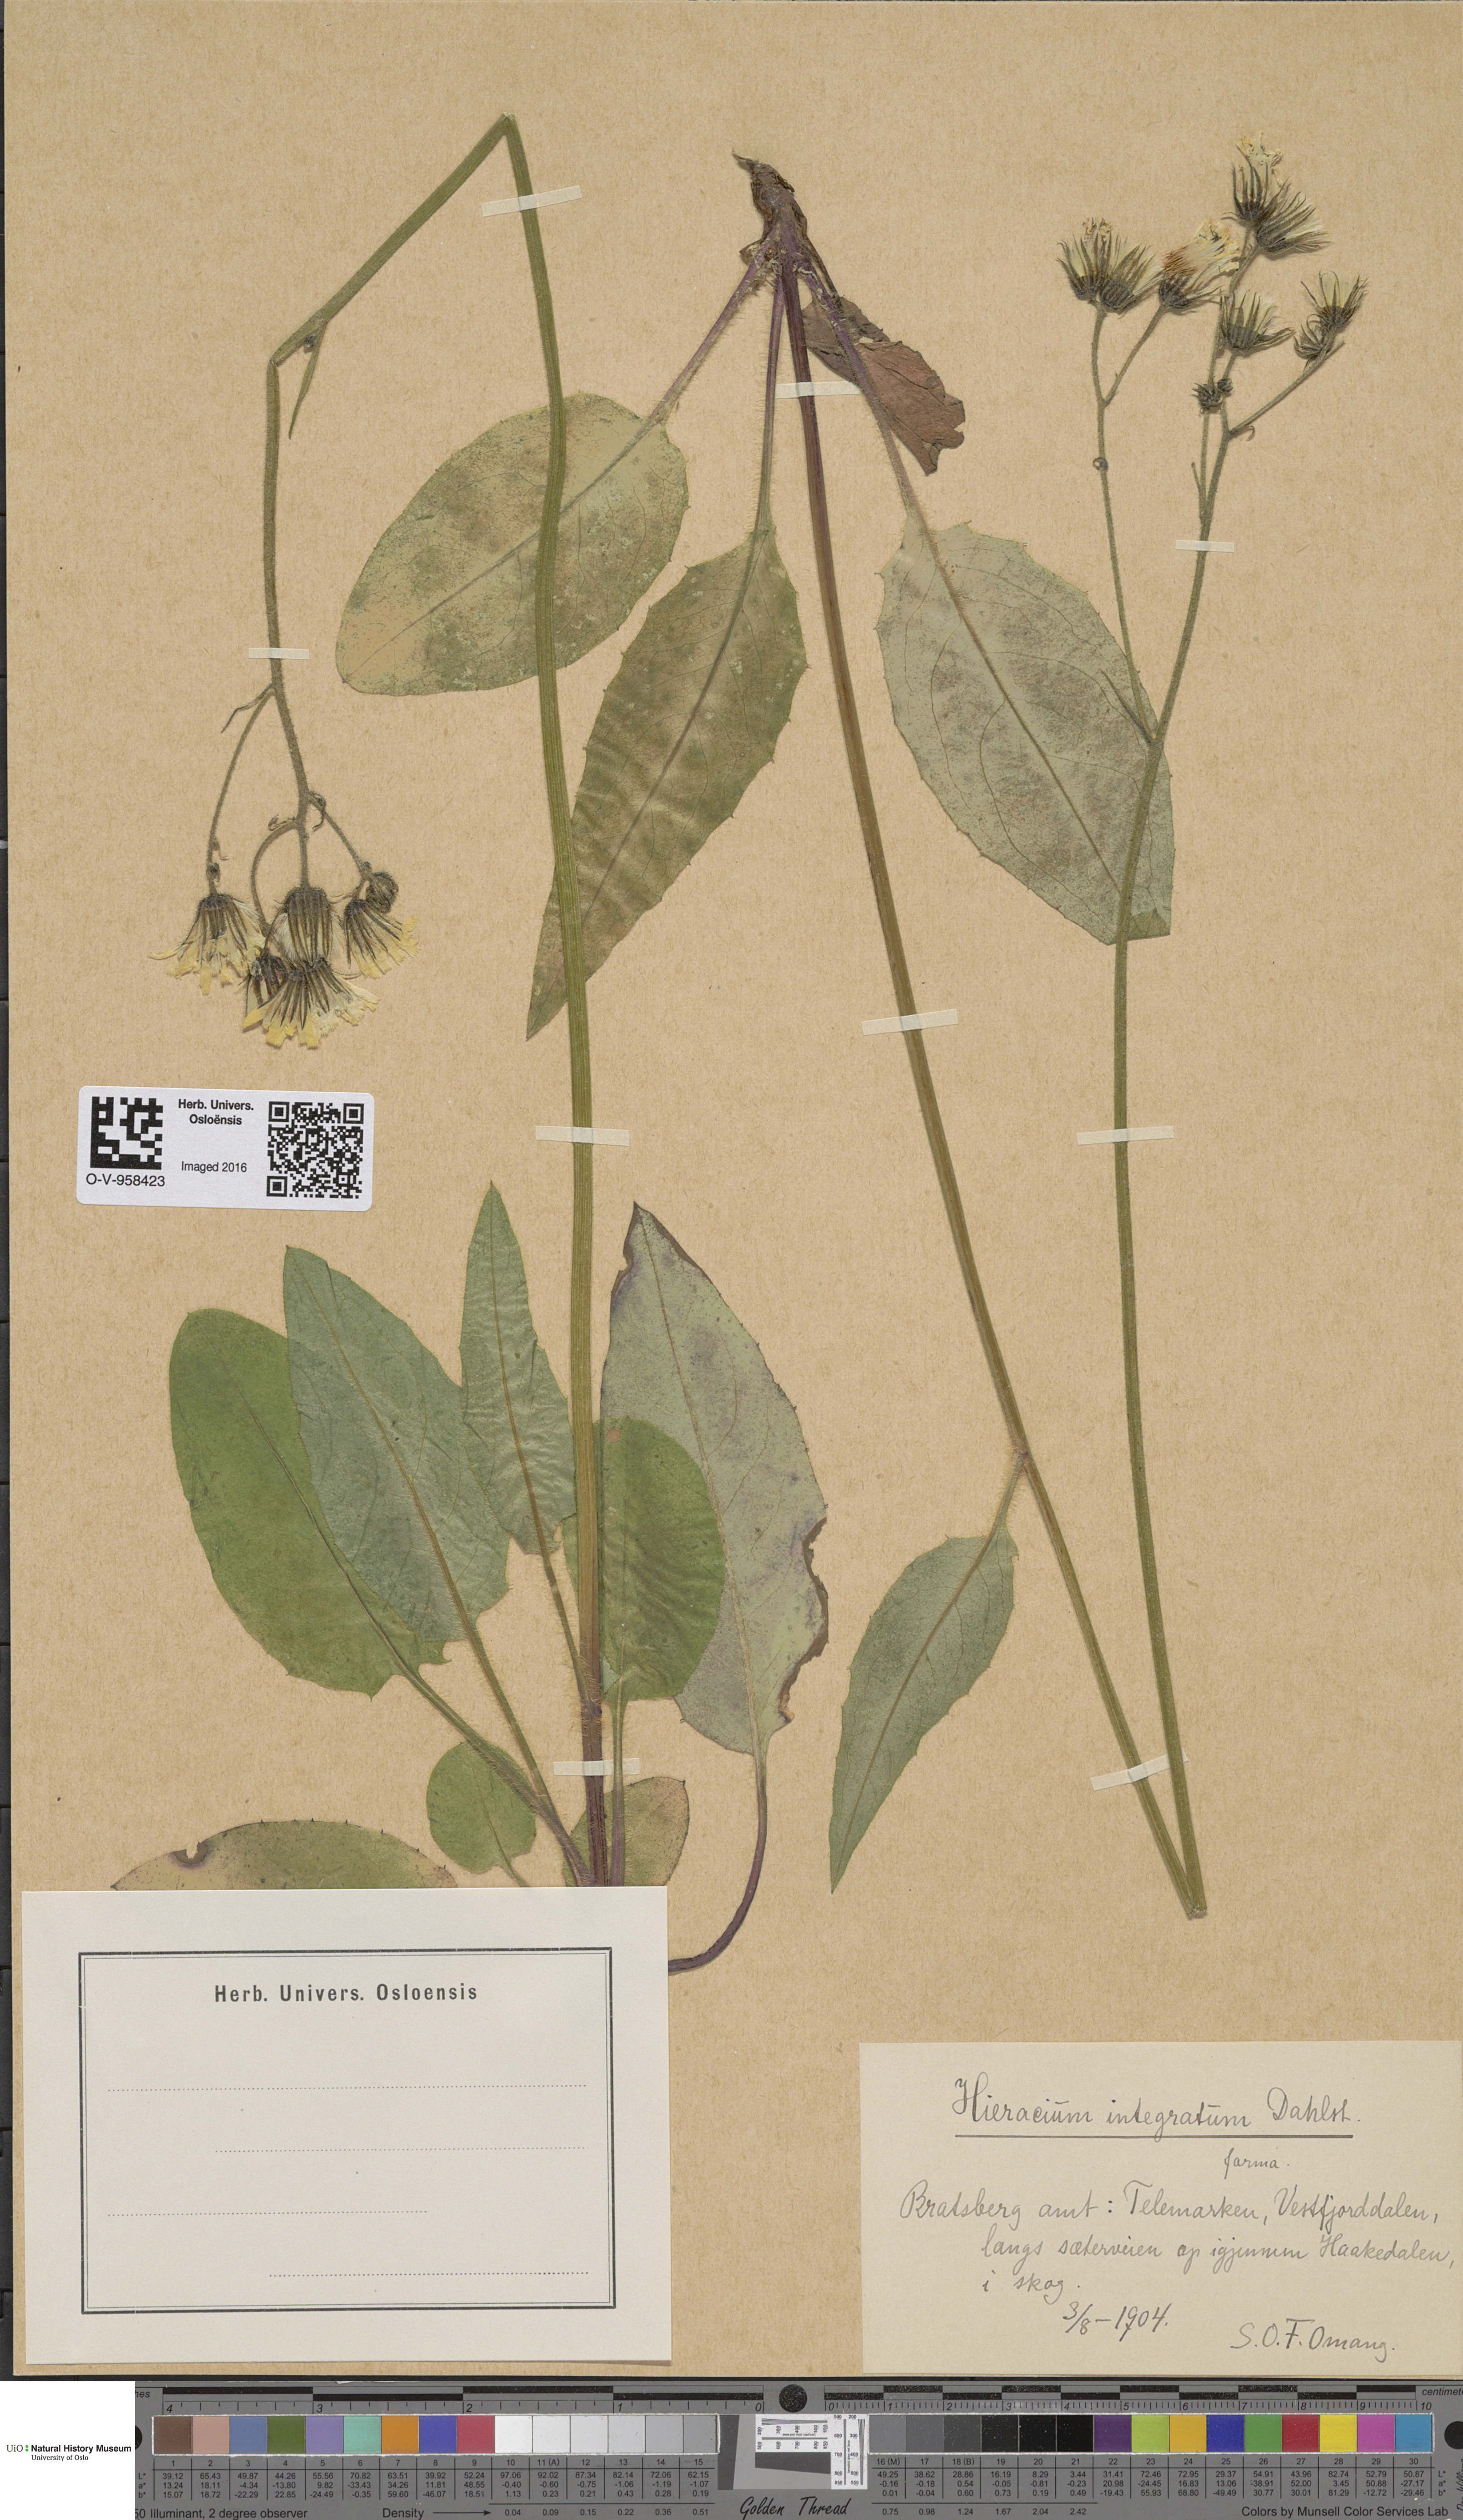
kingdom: Plantae
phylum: Tracheophyta
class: Magnoliopsida
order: Asterales
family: Asteraceae
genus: Hieracium
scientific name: Hieracium murorum
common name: Wall hawkweed
